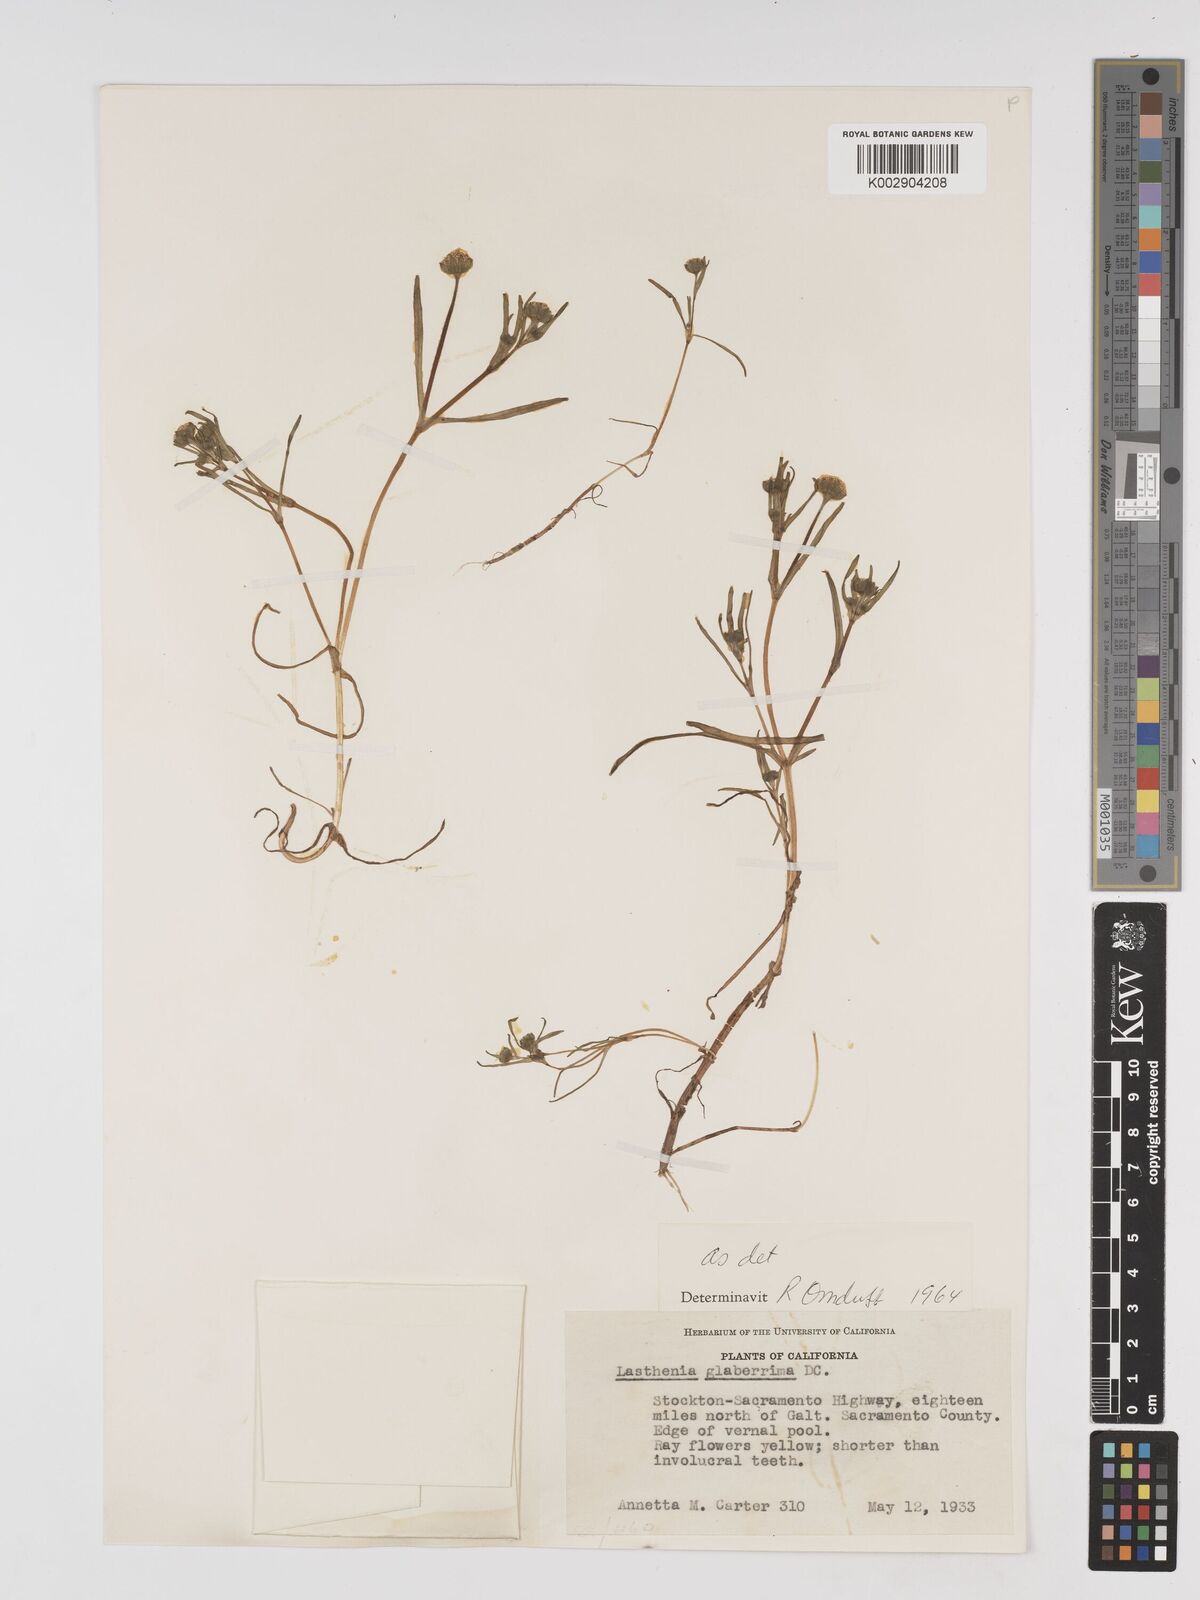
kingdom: Plantae
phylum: Tracheophyta
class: Magnoliopsida
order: Asterales
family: Asteraceae
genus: Lasthenia
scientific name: Lasthenia glaberrima
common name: Smooth goldfields
